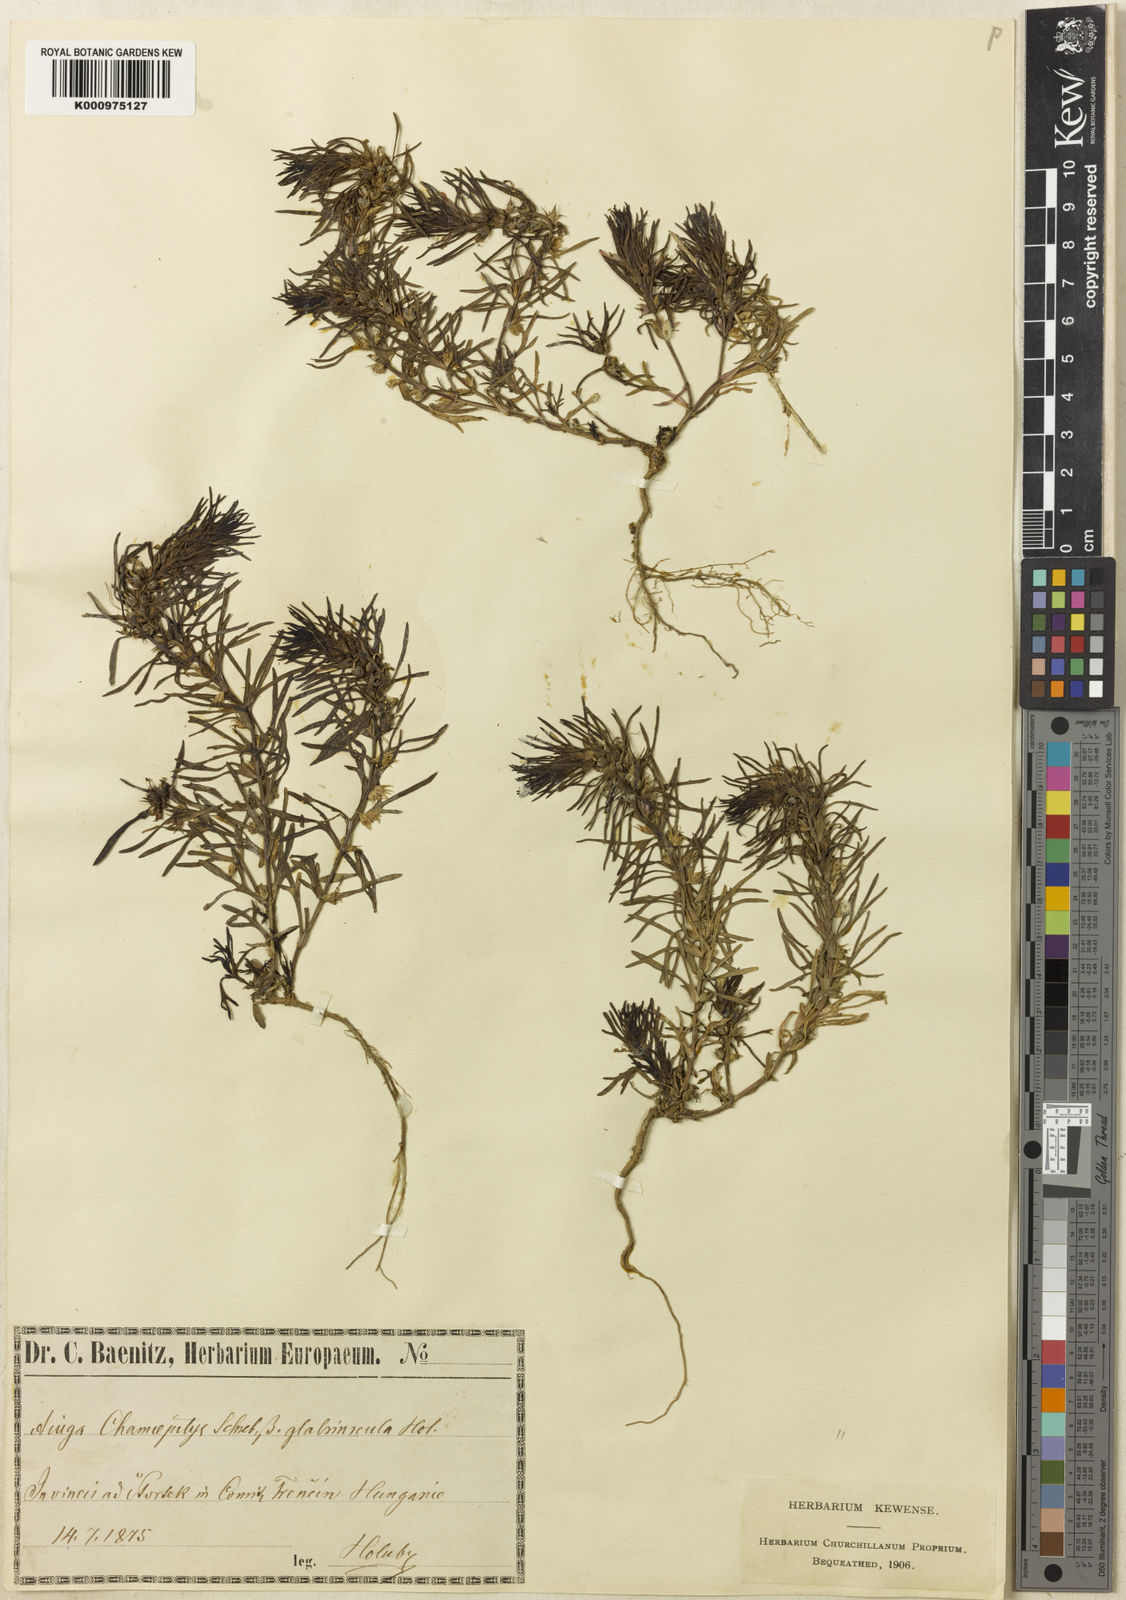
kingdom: Plantae
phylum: Tracheophyta
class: Magnoliopsida
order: Lamiales
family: Lamiaceae
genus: Ajuga
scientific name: Ajuga chamaepitys
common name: Ground-pine
